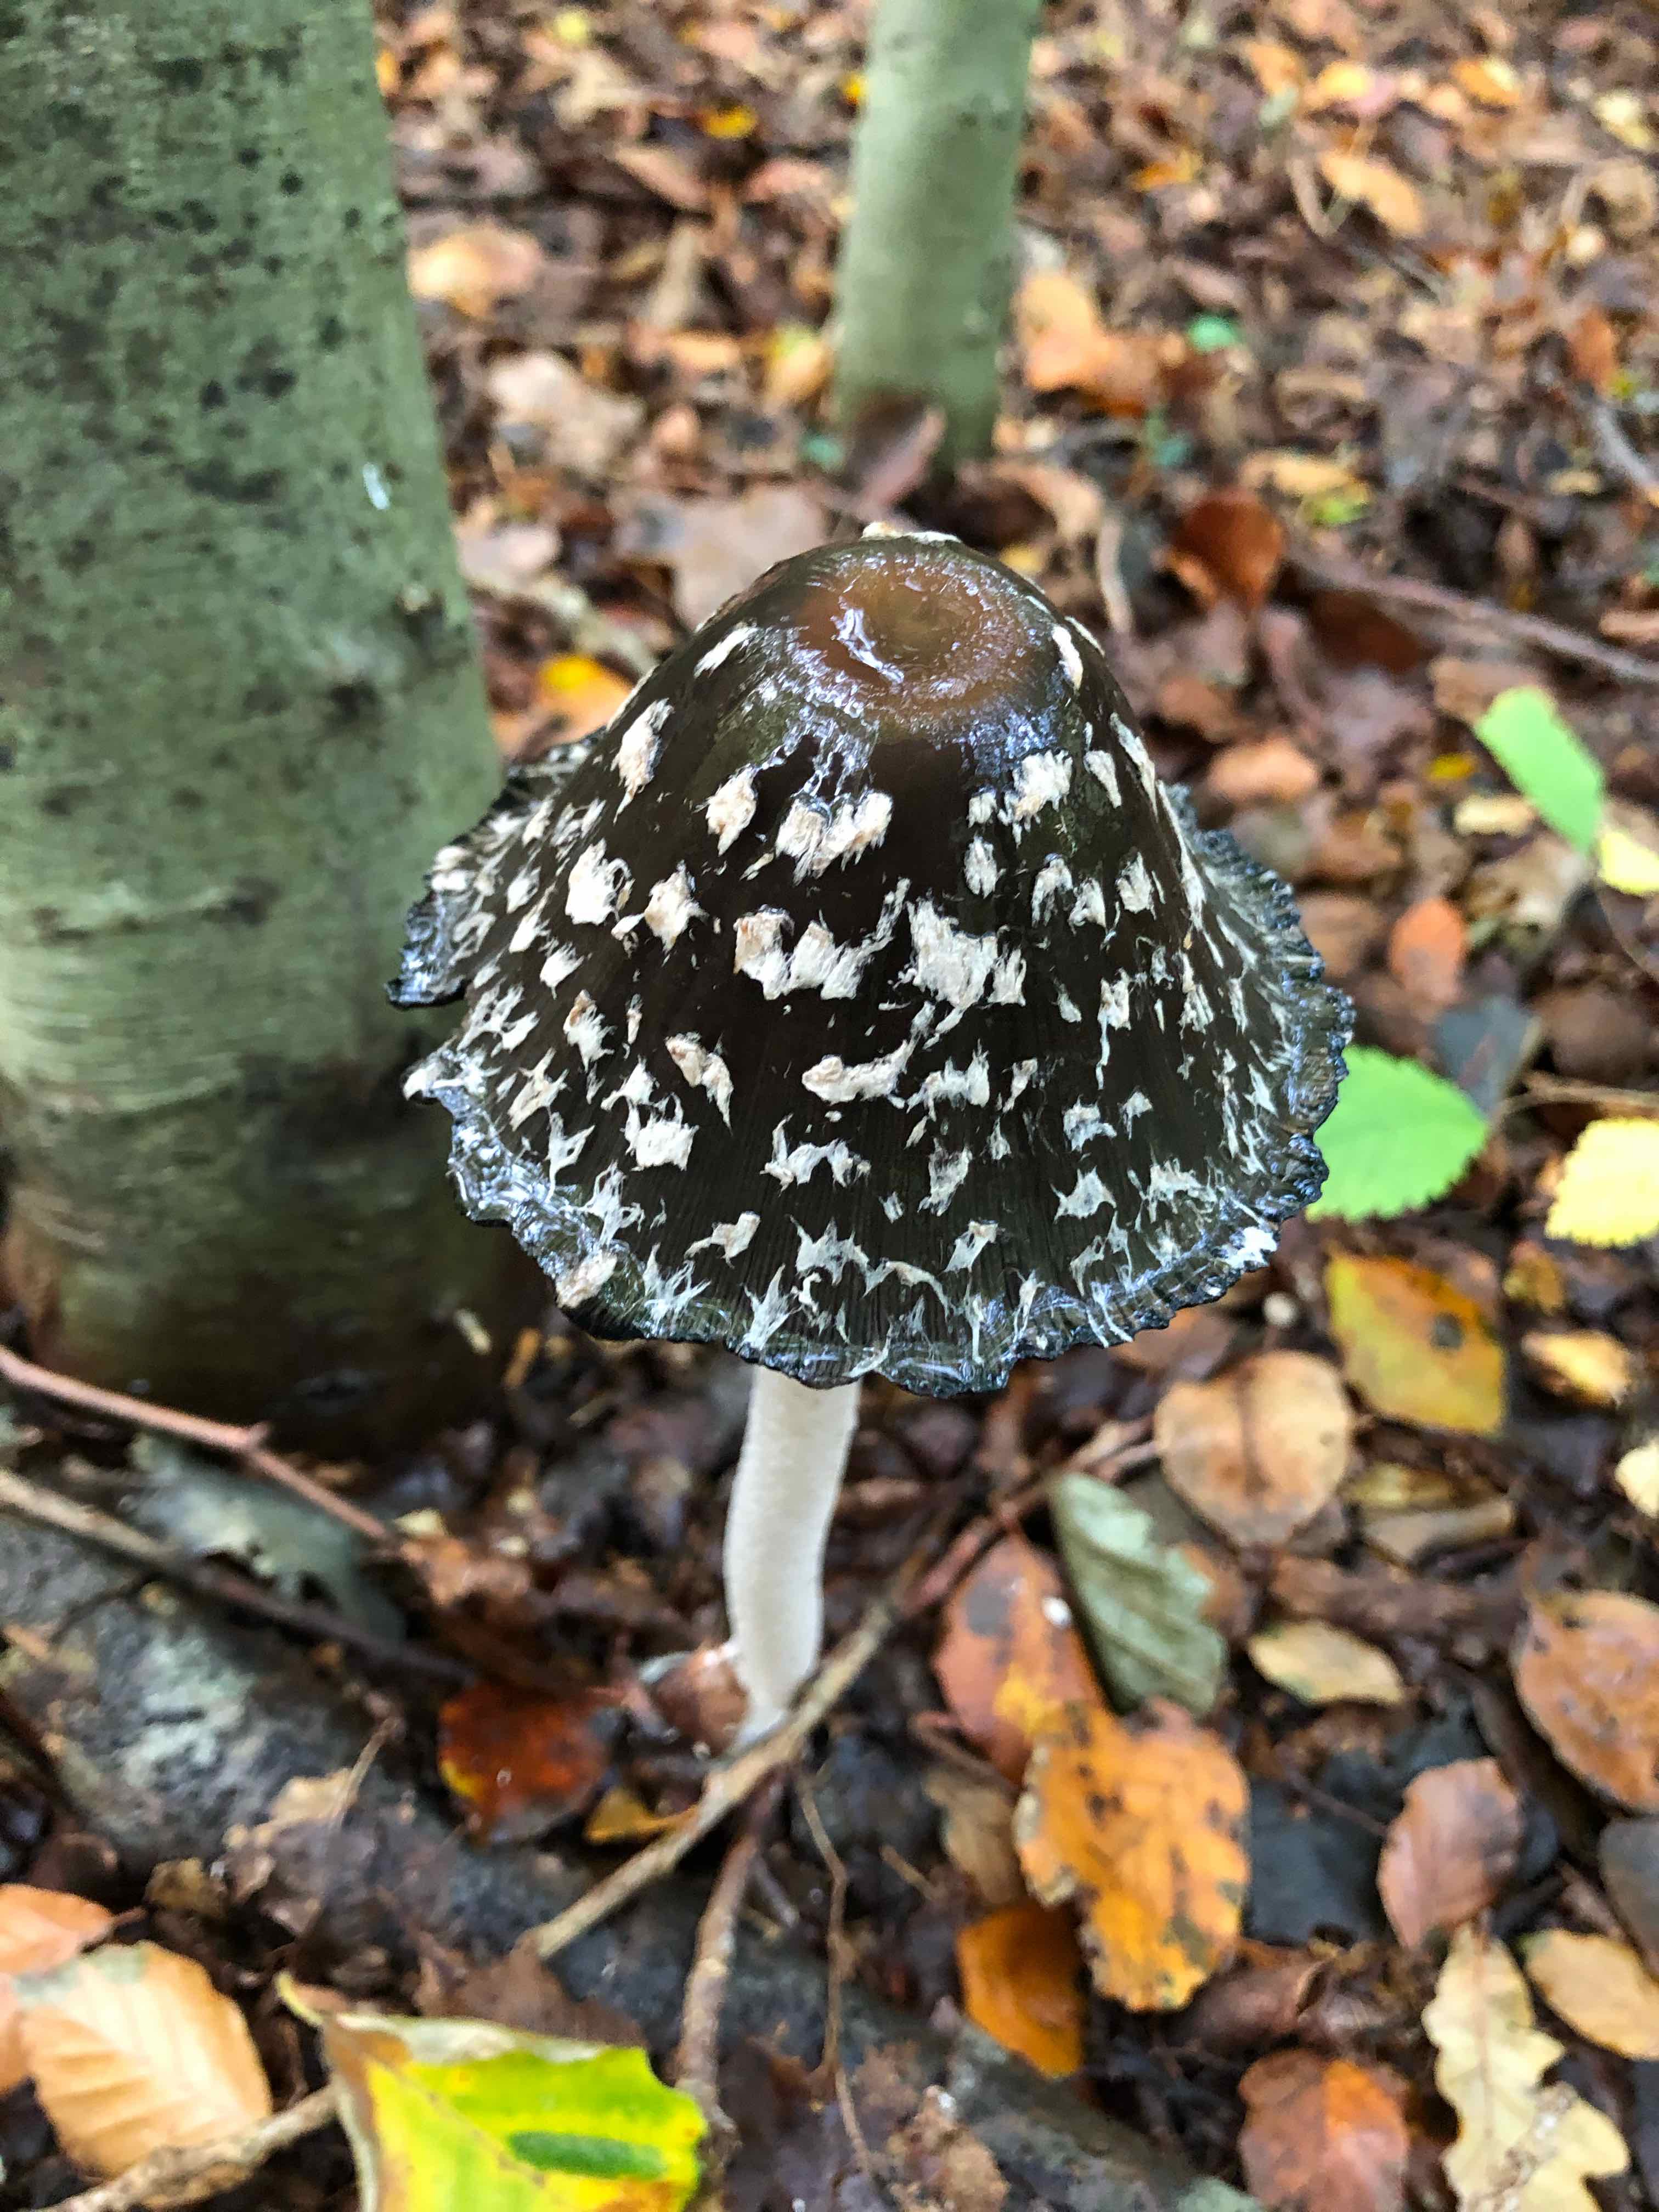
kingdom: Fungi
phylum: Basidiomycota
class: Agaricomycetes
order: Agaricales
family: Psathyrellaceae
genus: Coprinopsis
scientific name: Coprinopsis picacea
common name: skade-blækhat
